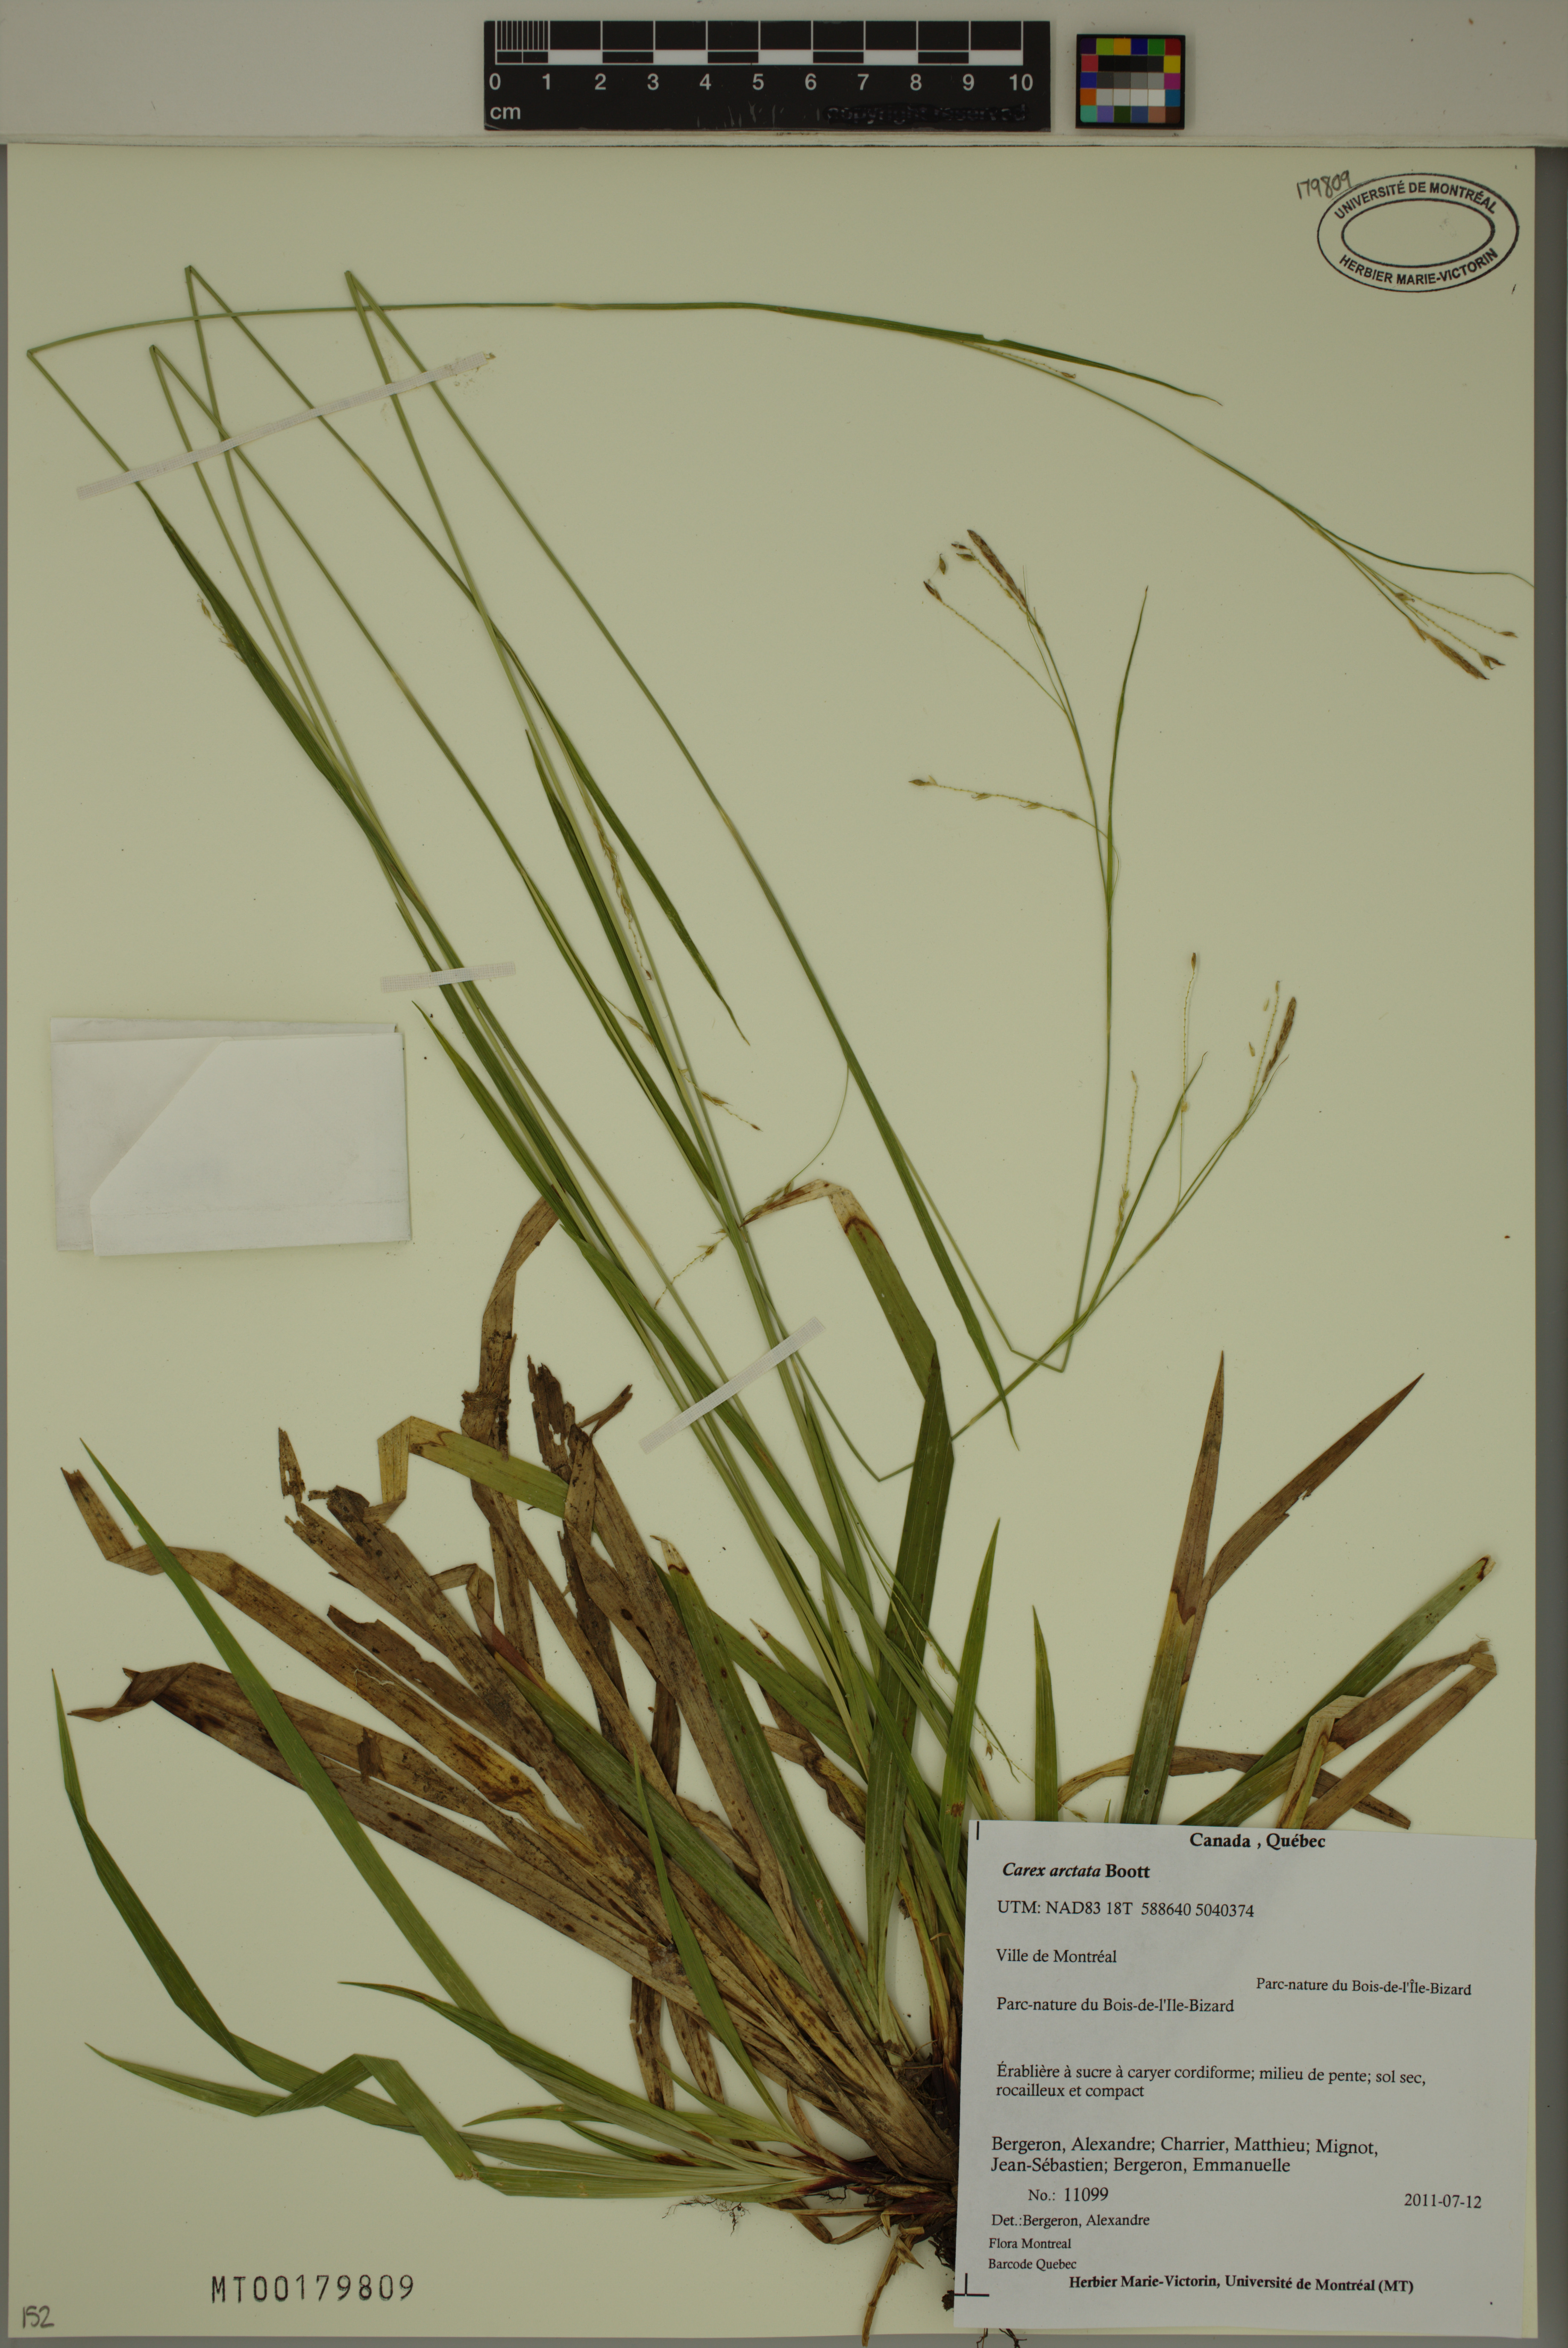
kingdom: Plantae
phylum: Tracheophyta
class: Liliopsida
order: Poales
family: Cyperaceae
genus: Carex
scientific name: Carex arctata
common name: Black sedge
